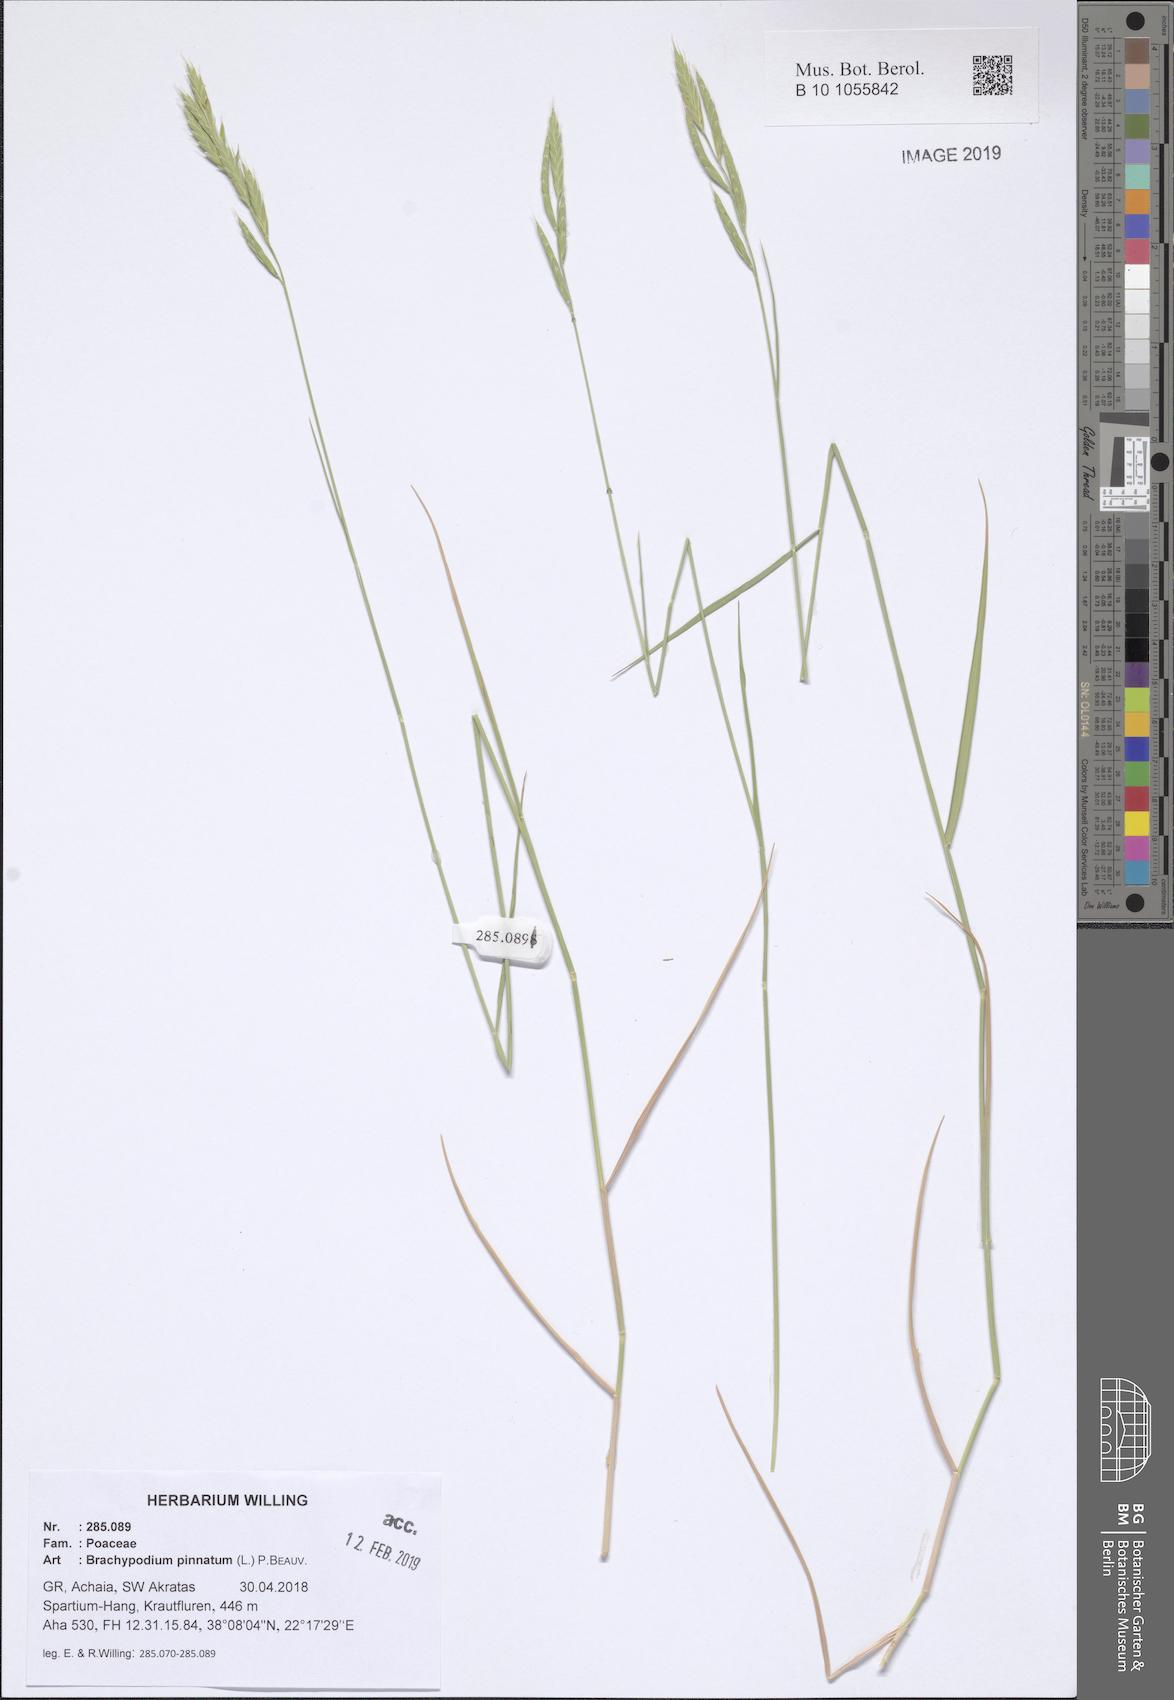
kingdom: Plantae
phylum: Tracheophyta
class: Liliopsida
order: Poales
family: Poaceae
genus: Brachypodium
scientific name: Brachypodium pinnatum
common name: Tor grass
